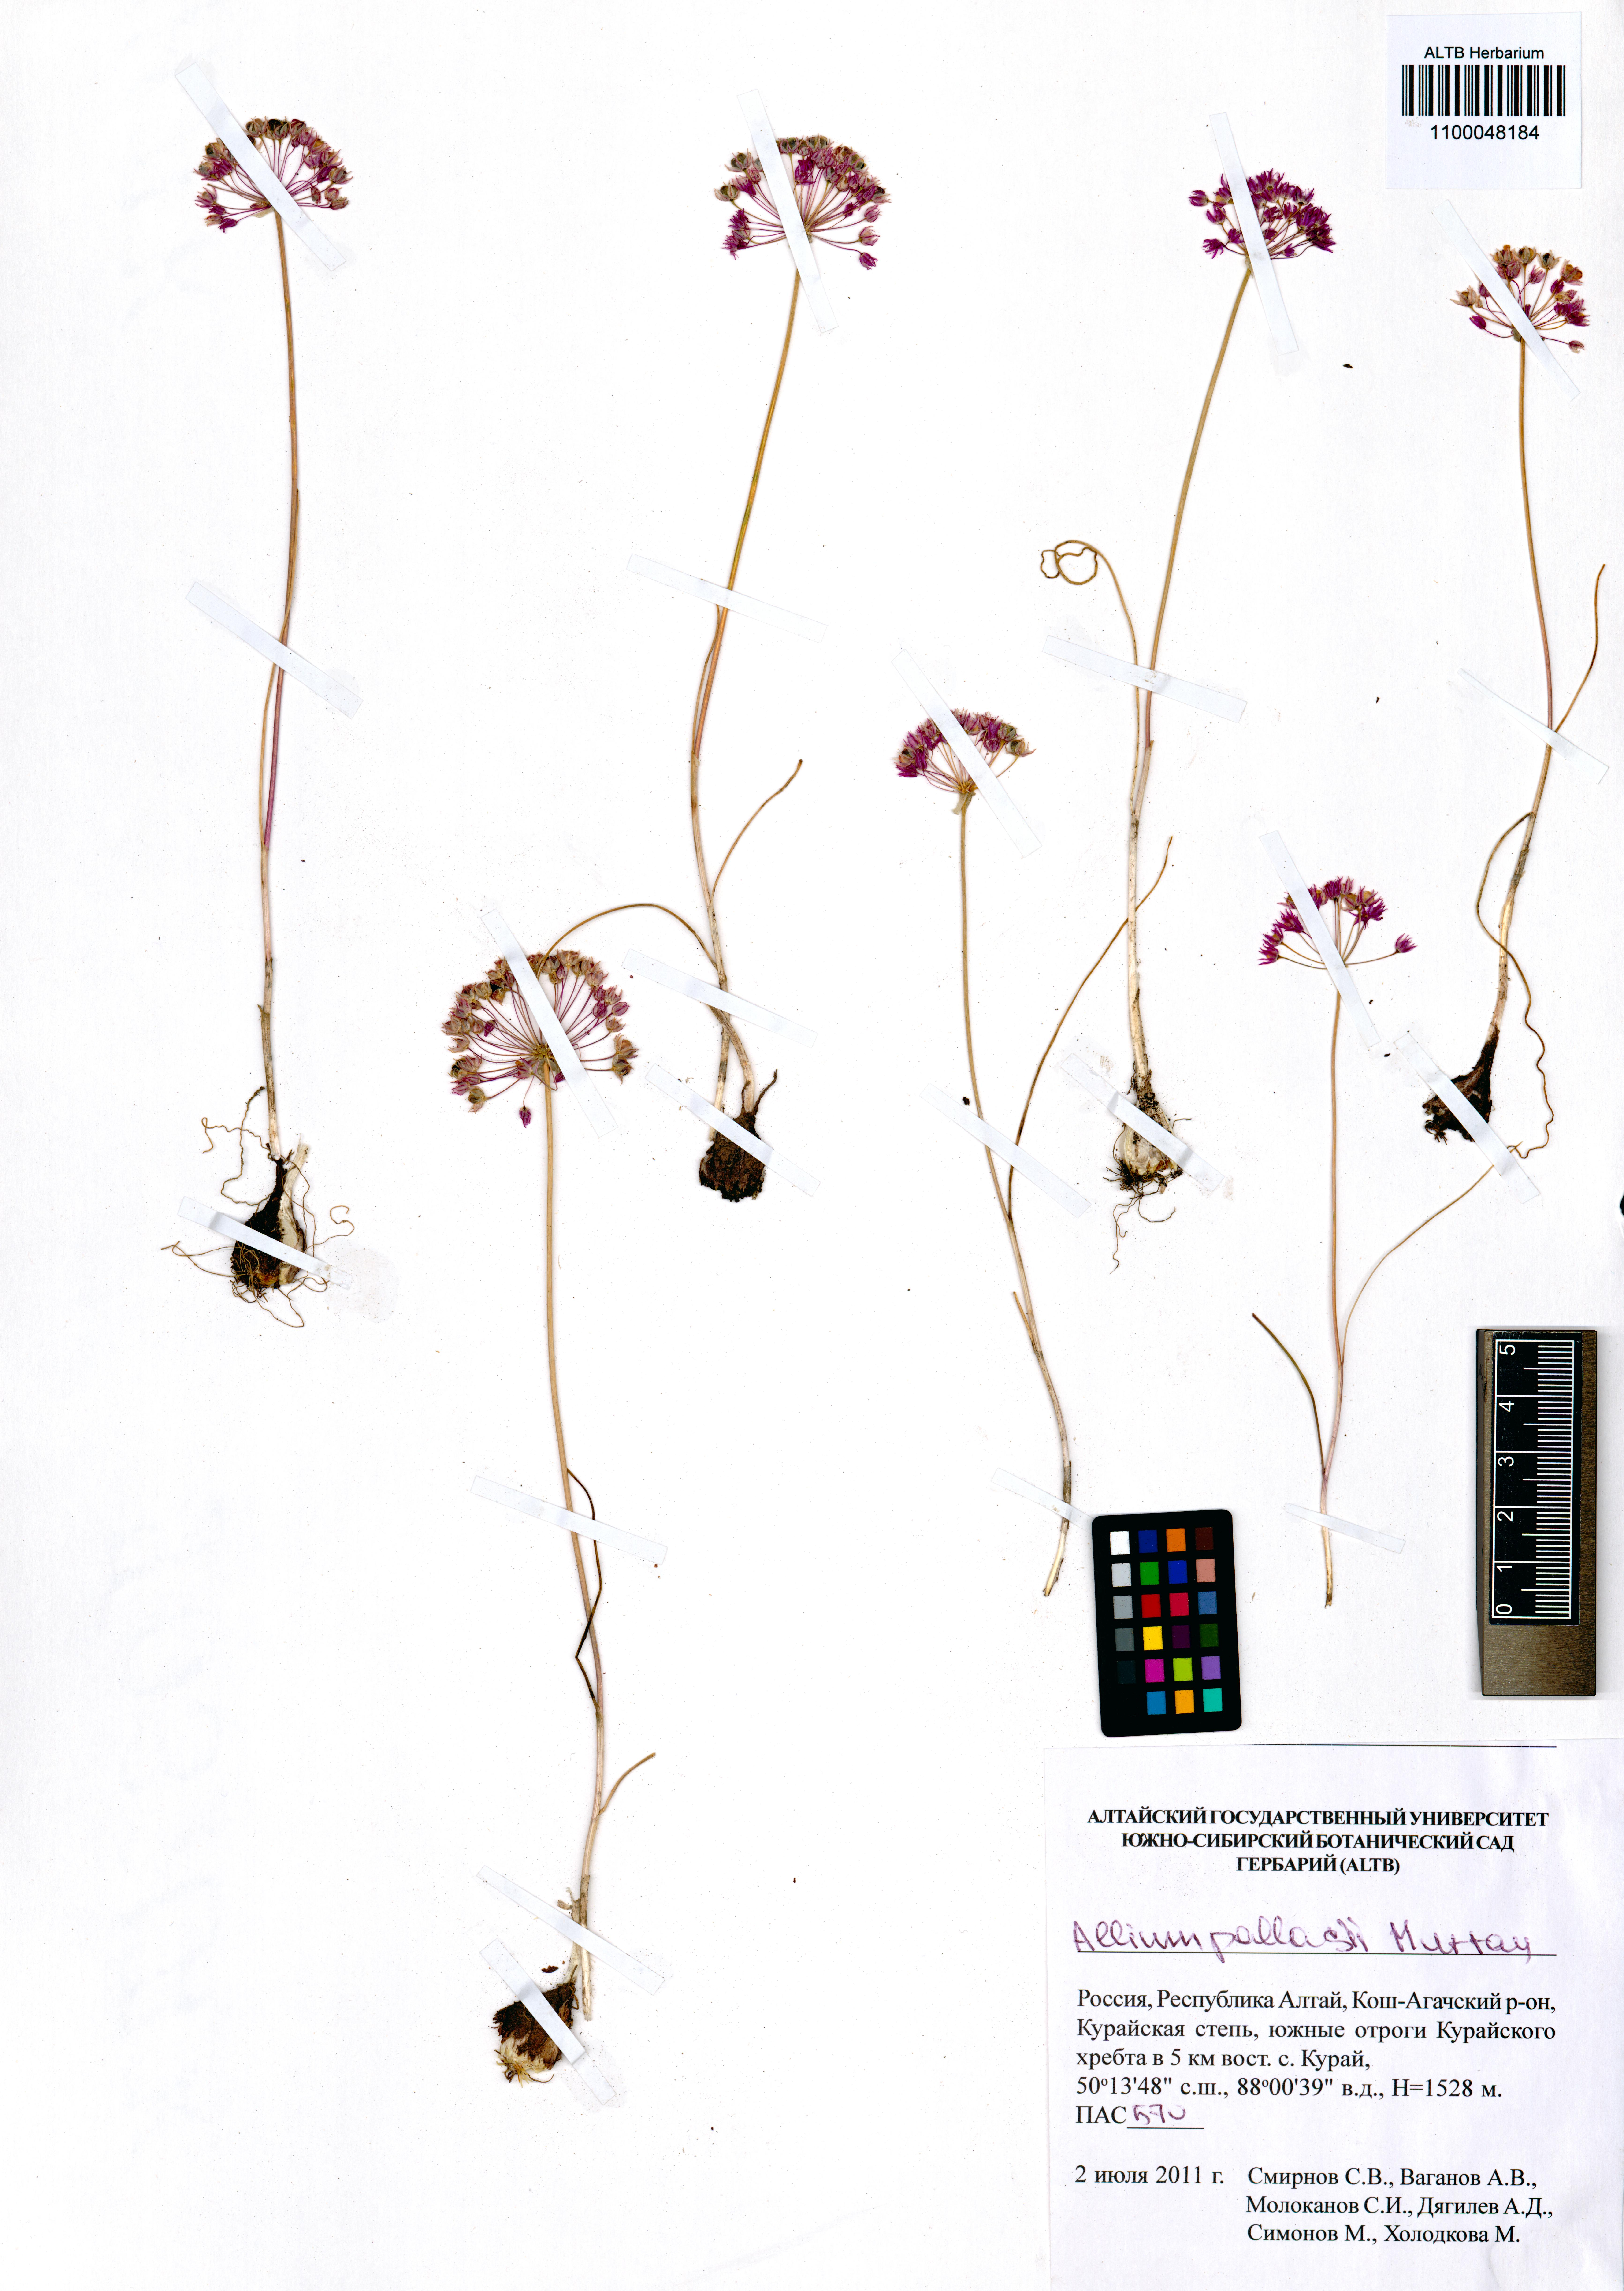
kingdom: Plantae
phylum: Tracheophyta
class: Liliopsida
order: Asparagales
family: Amaryllidaceae
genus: Allium
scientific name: Allium pallasii
